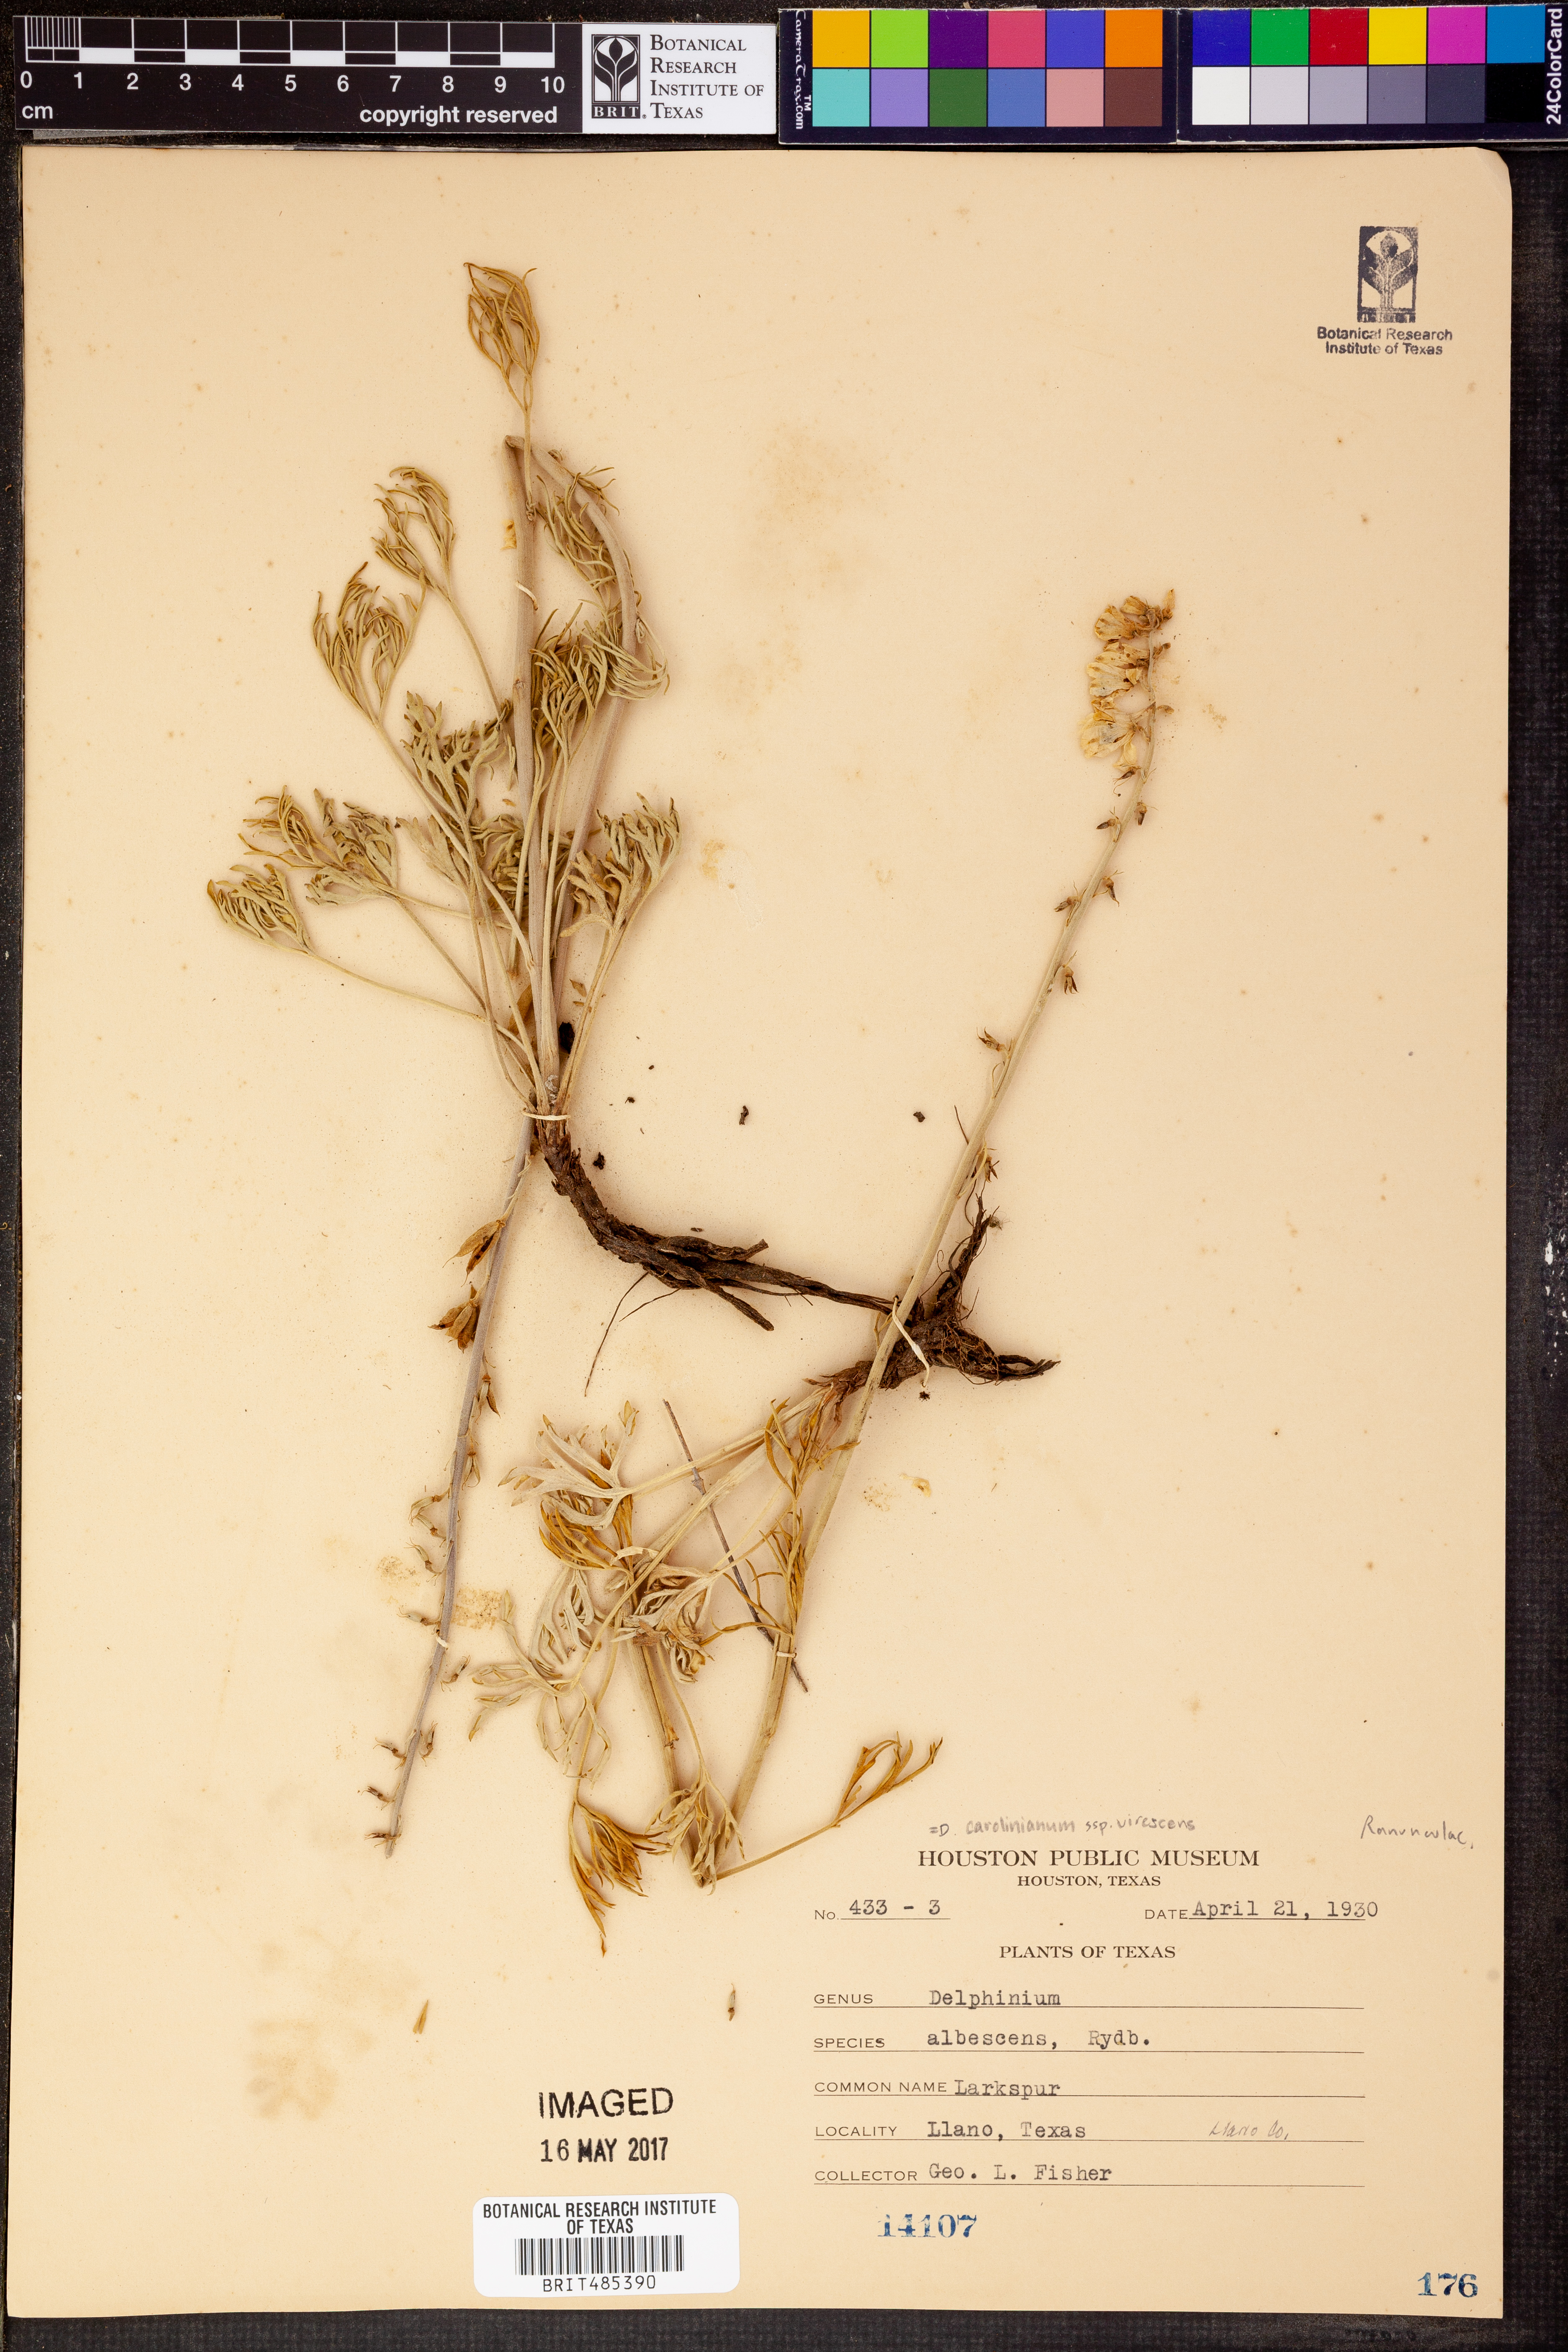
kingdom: Plantae
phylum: Tracheophyta
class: Magnoliopsida
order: Ranunculales
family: Ranunculaceae
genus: Delphinium
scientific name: Delphinium carolinianum
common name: Carolina larkspur
